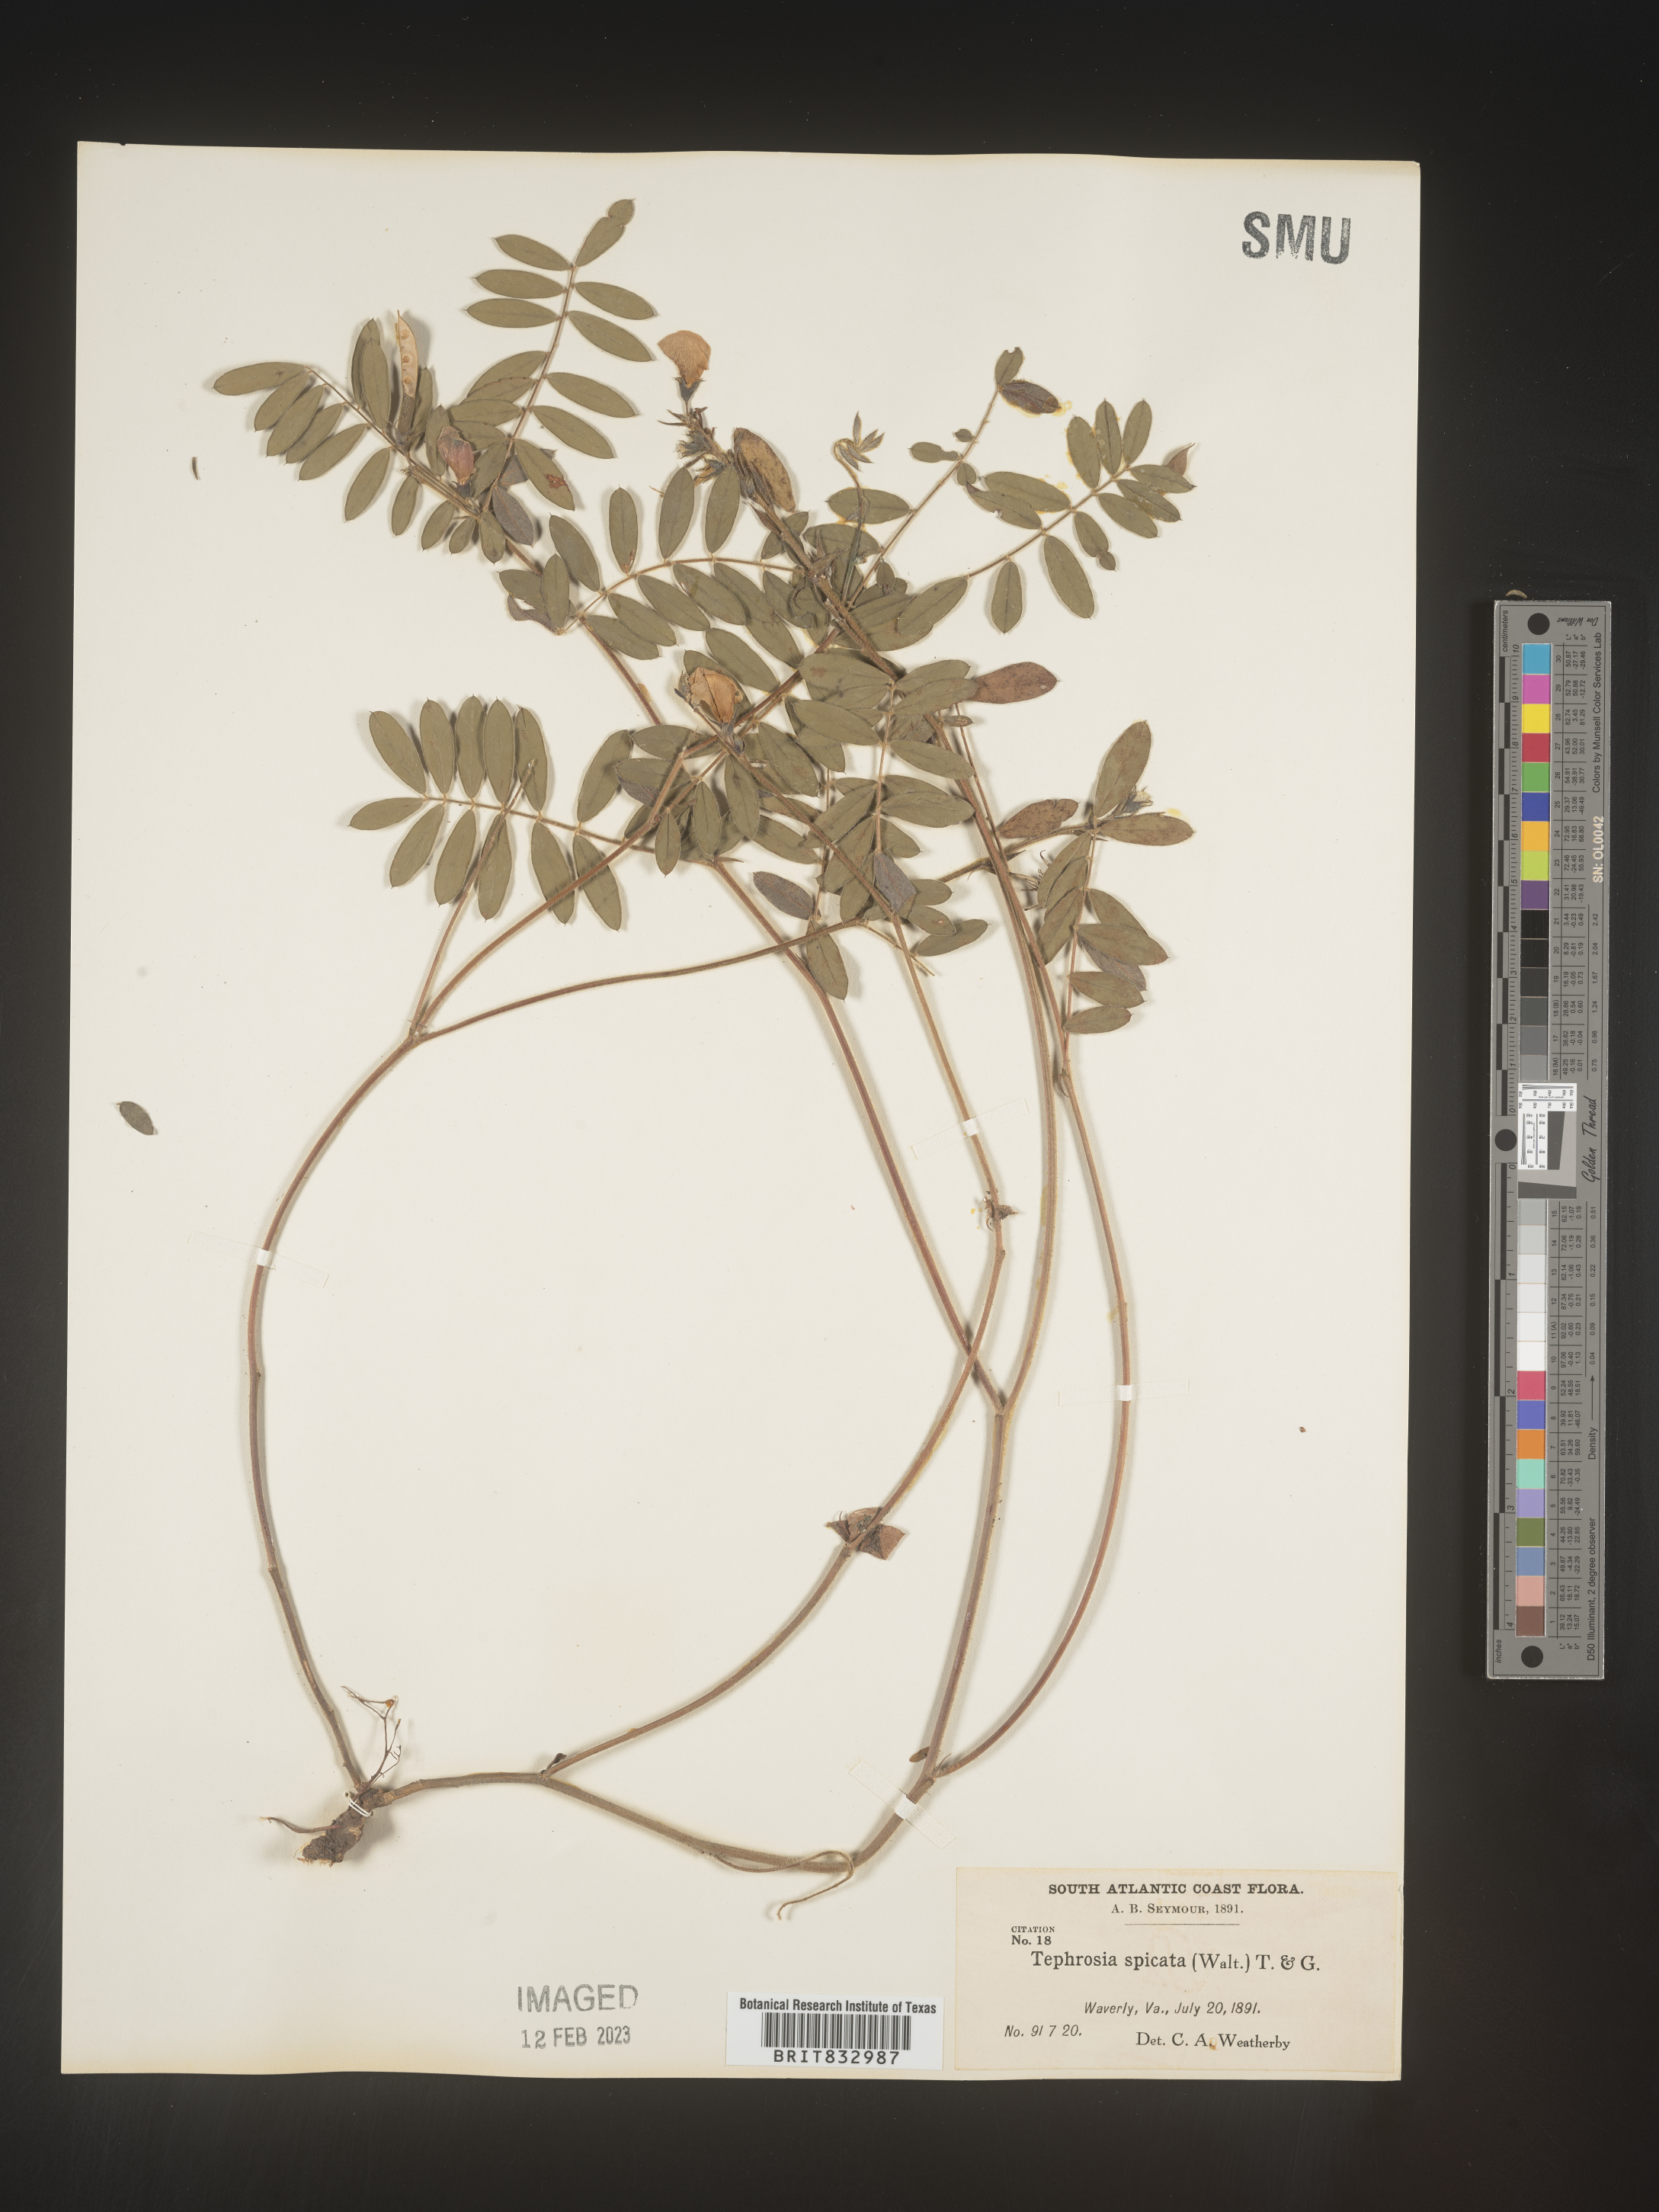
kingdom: Plantae
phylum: Tracheophyta
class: Magnoliopsida
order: Fabales
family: Fabaceae
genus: Tephrosia
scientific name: Tephrosia spicata
